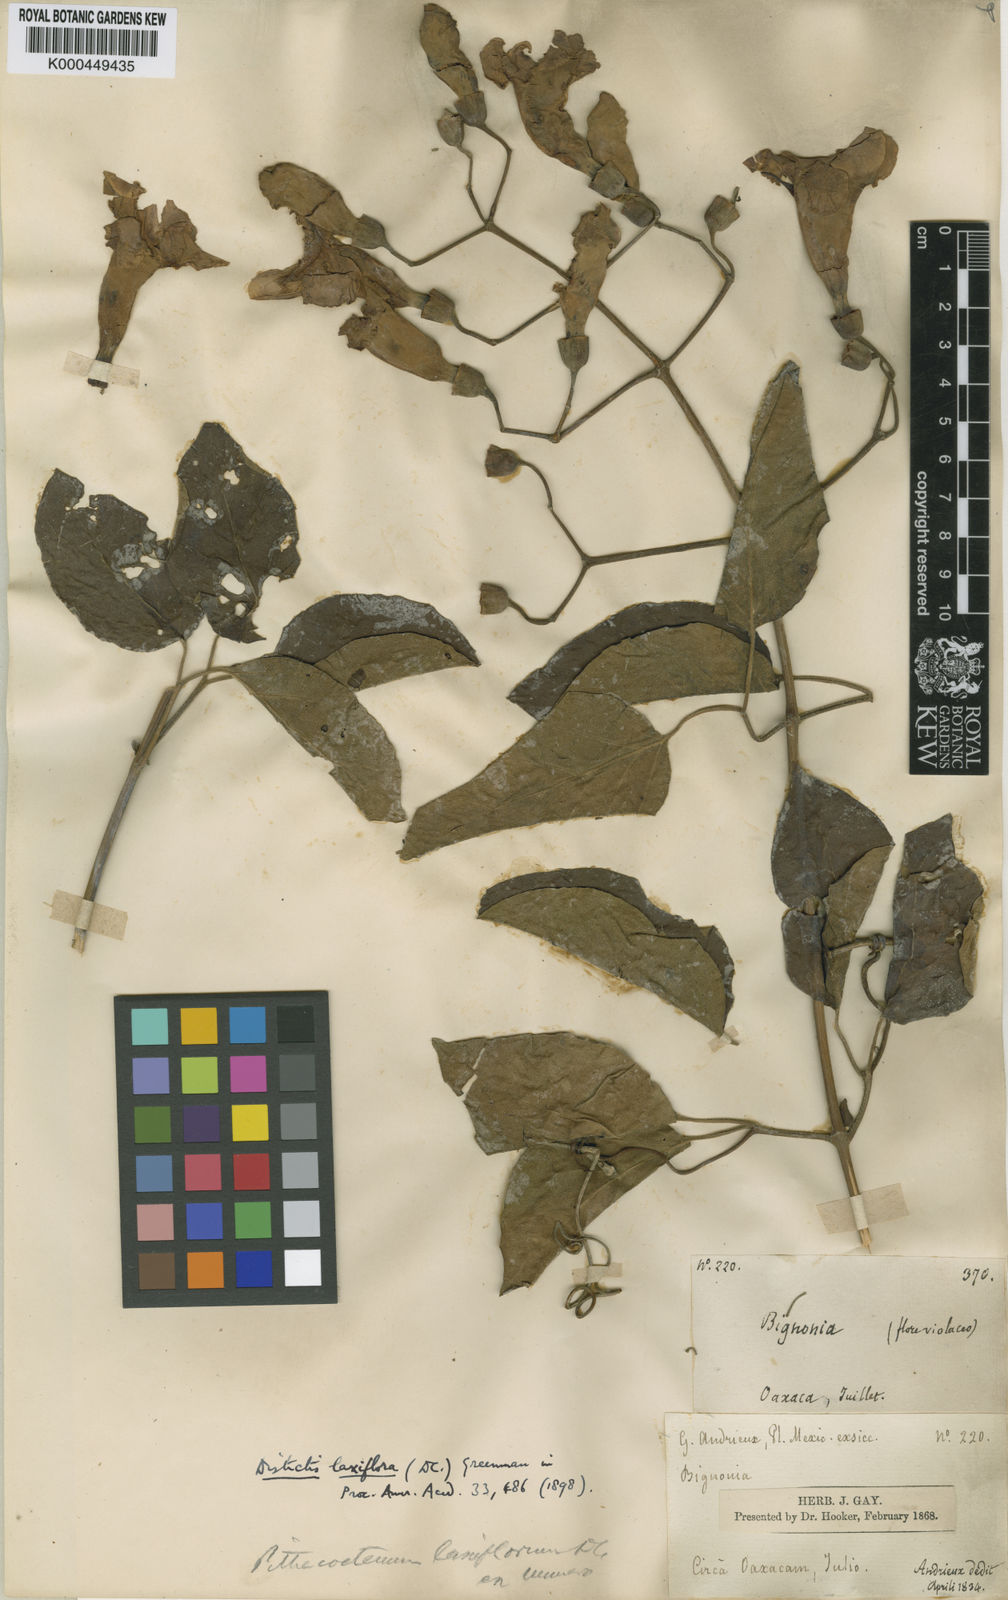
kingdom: Plantae
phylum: Tracheophyta
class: Magnoliopsida
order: Lamiales
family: Bignoniaceae
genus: Amphilophium
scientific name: Amphilophium laxiflorum
